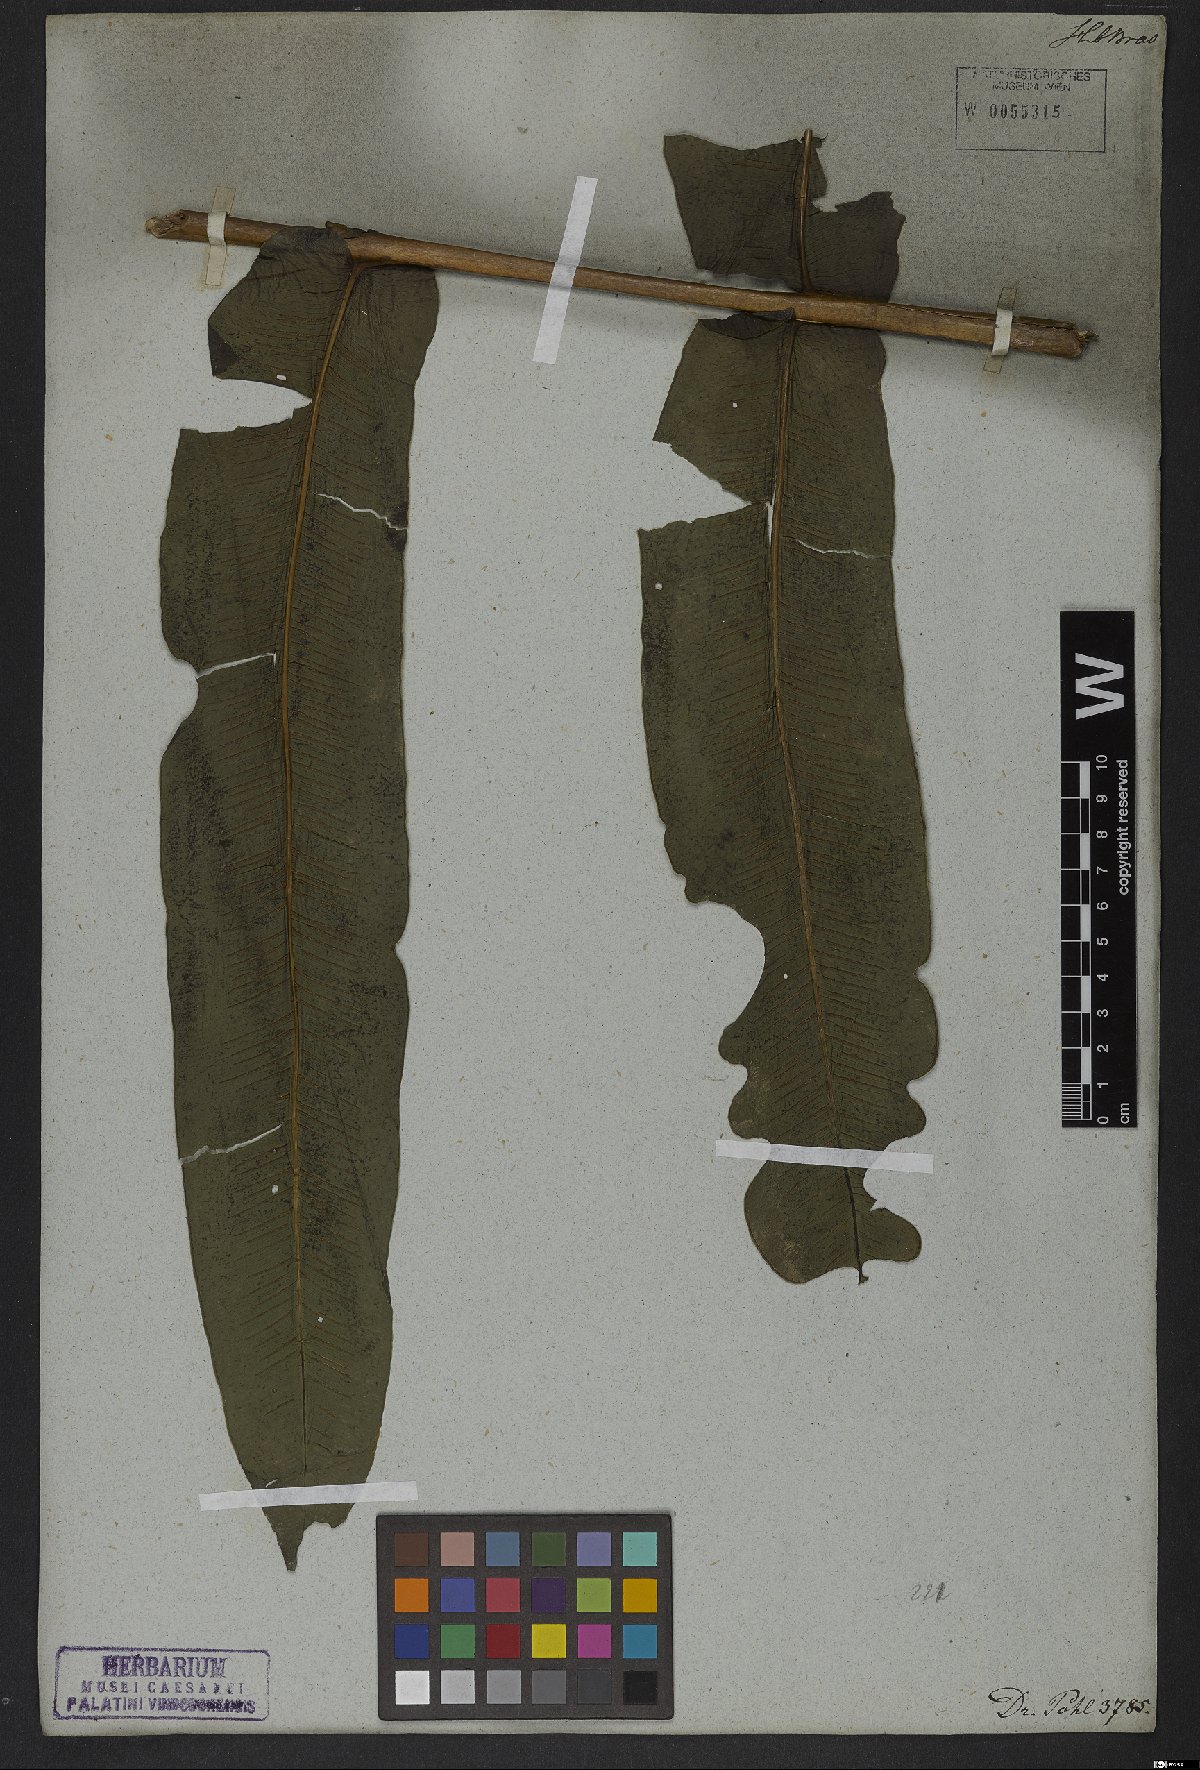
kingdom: Plantae
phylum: Tracheophyta
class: Polypodiopsida
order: Polypodiales
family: Hemidictyaceae
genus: Hemidictyum
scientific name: Hemidictyum marginatum
